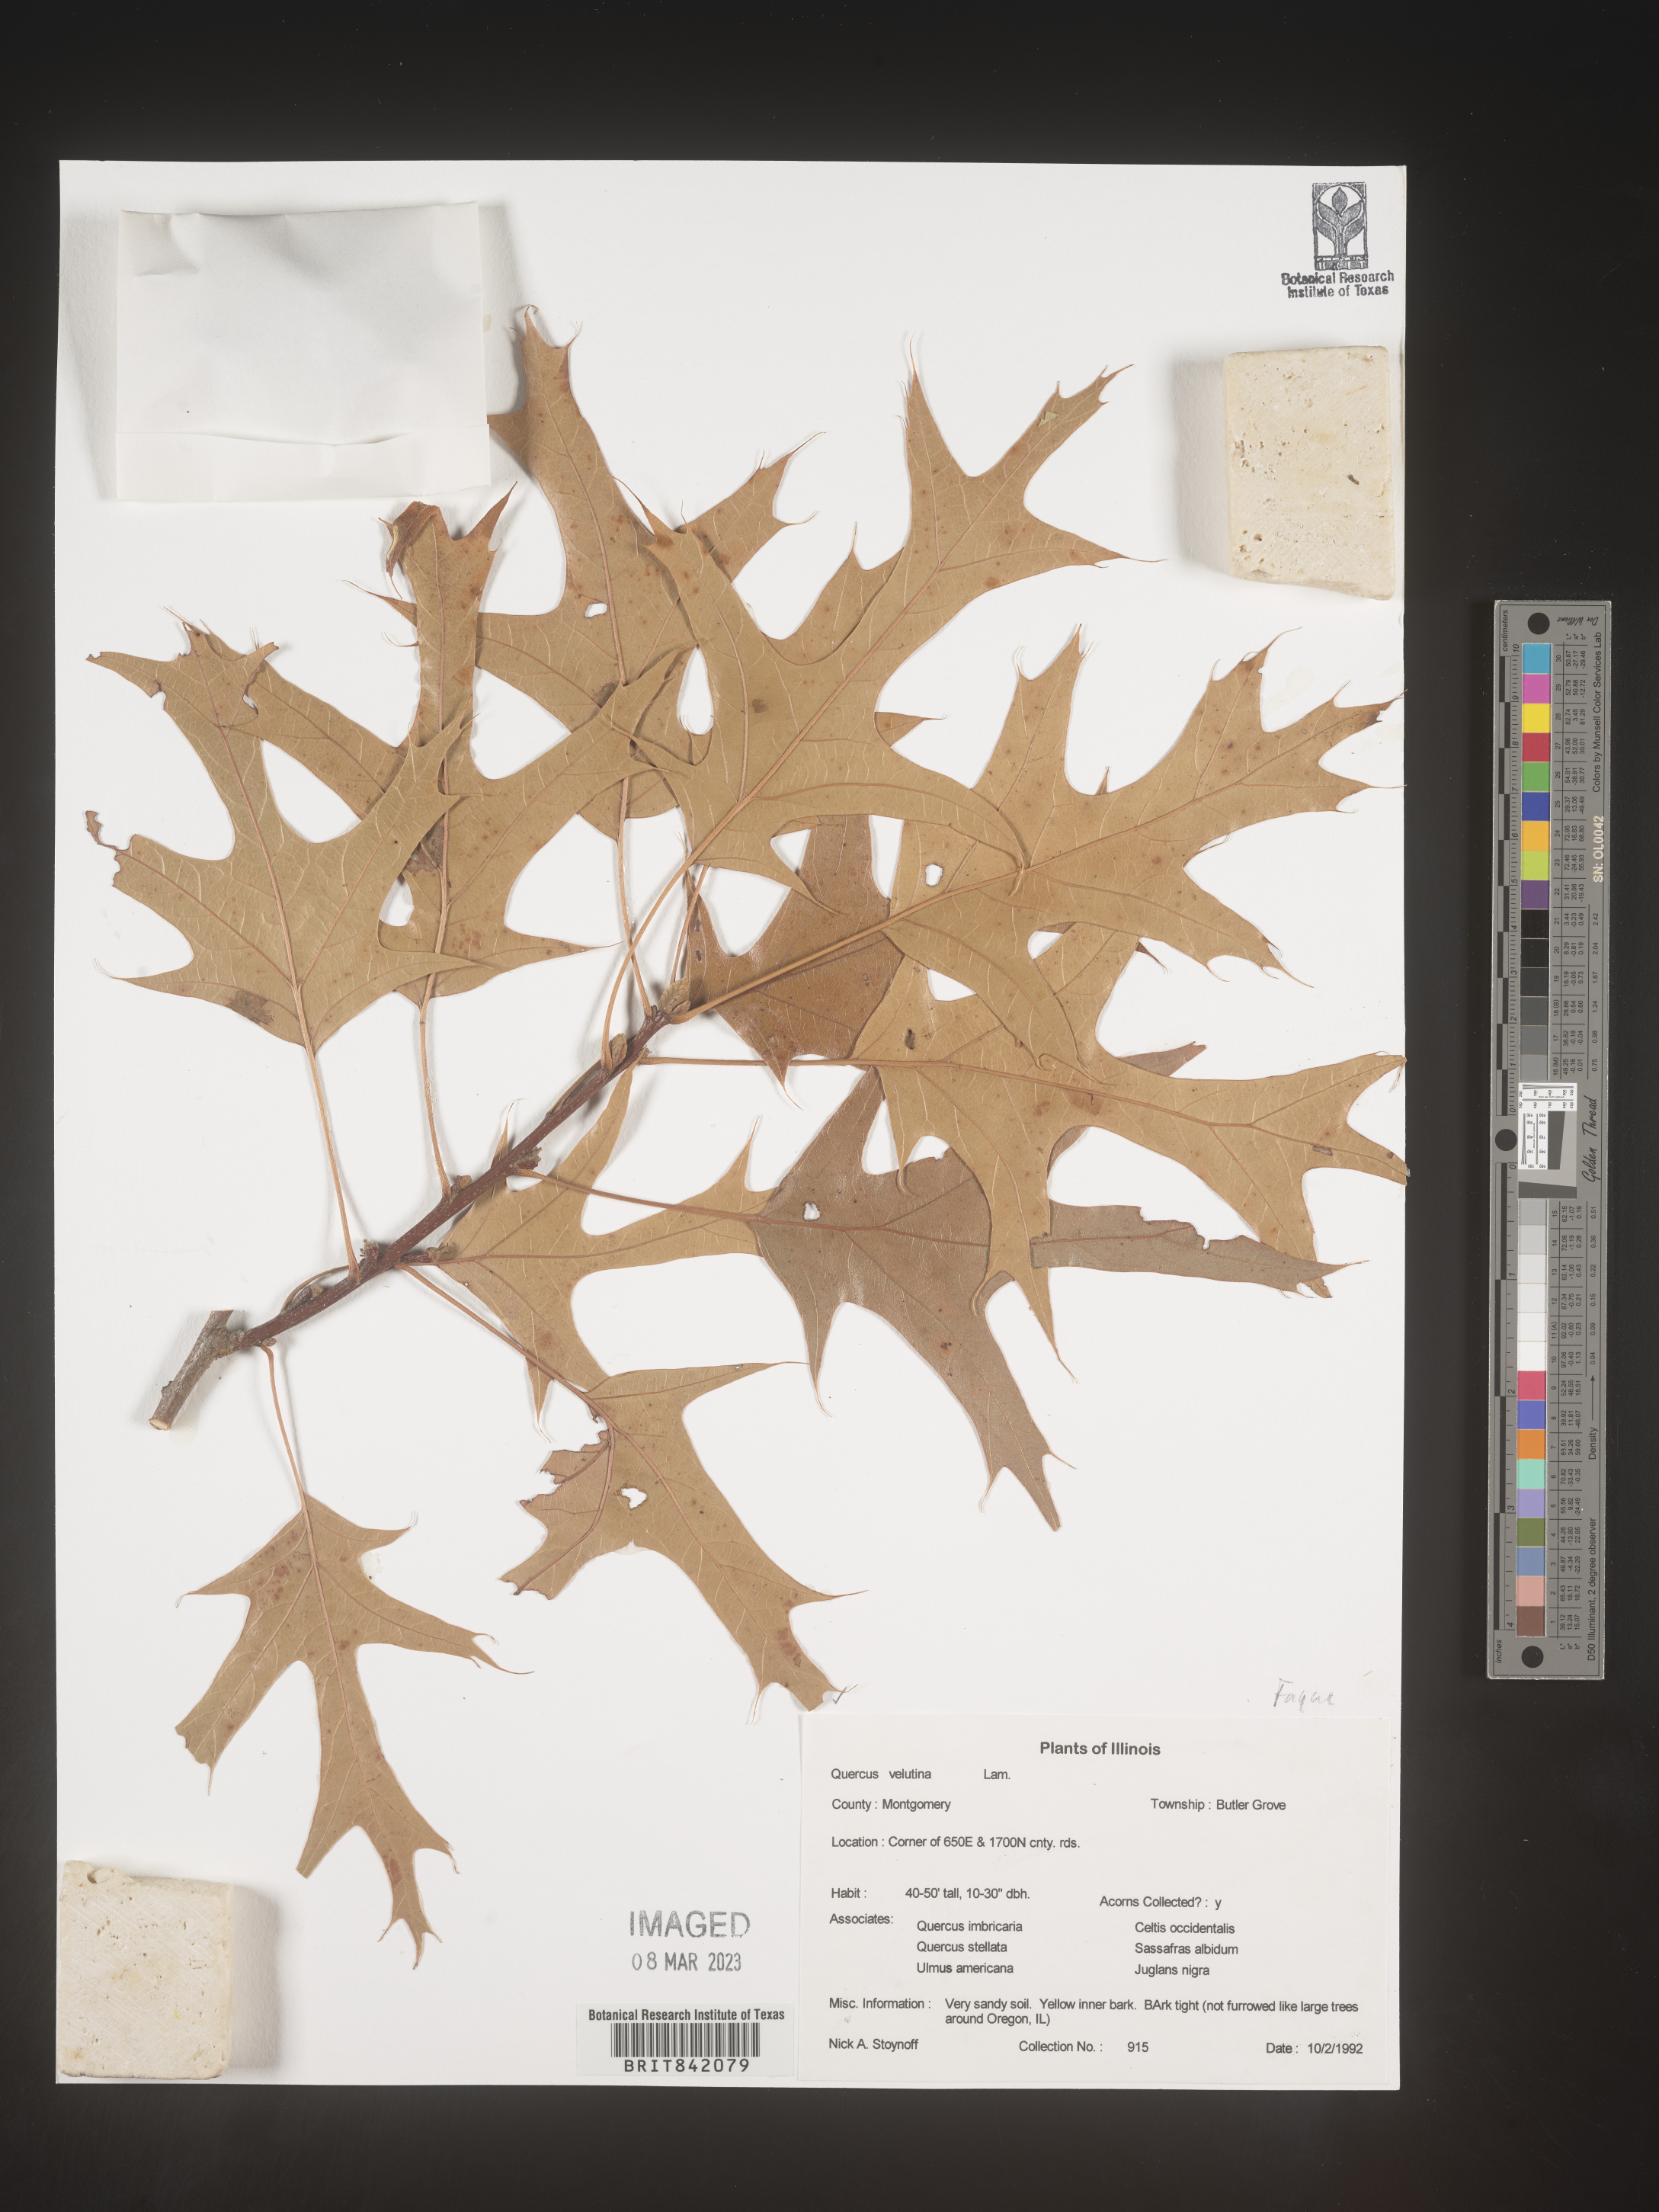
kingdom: Plantae
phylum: Tracheophyta
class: Magnoliopsida
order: Fagales
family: Fagaceae
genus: Quercus
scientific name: Quercus velutina
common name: Black oak
